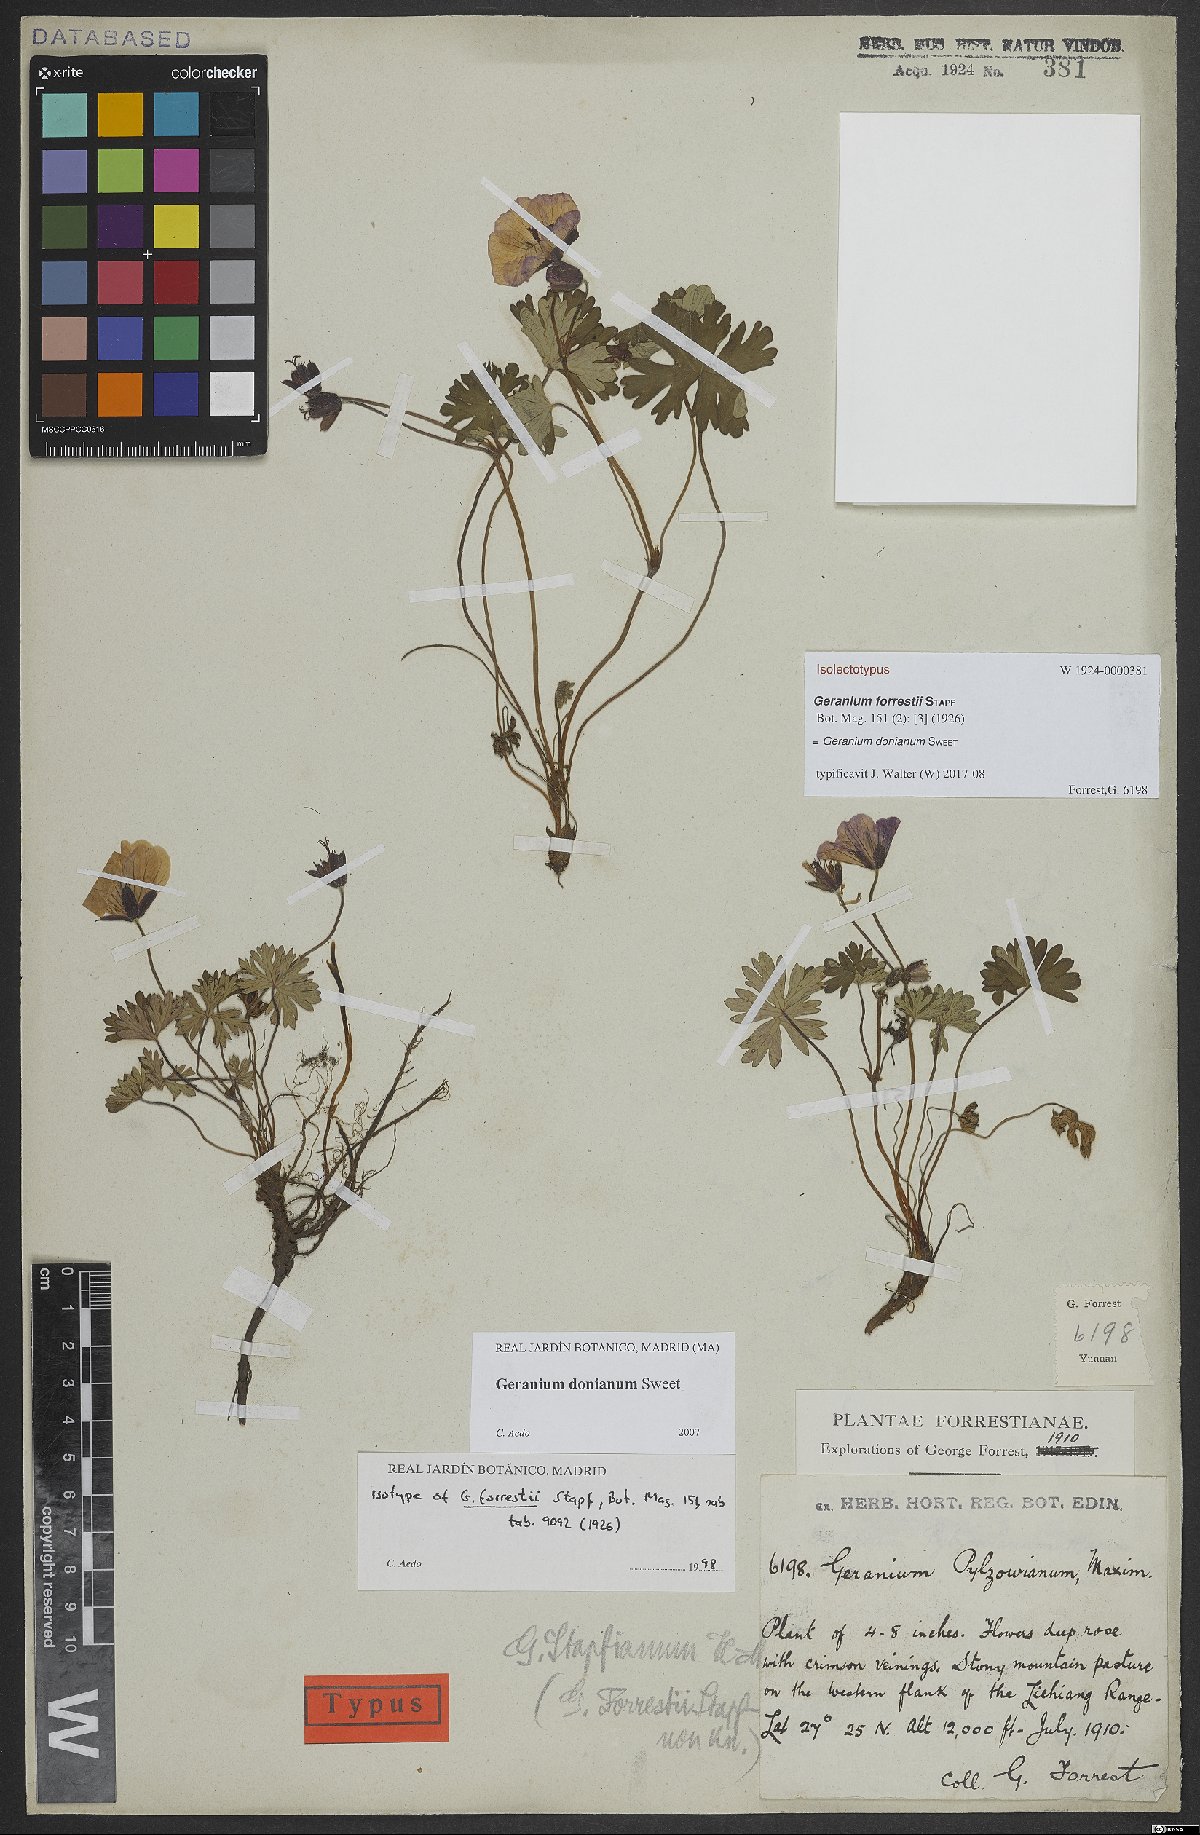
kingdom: Plantae
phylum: Tracheophyta
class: Magnoliopsida
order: Geraniales
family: Geraniaceae
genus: Geranium
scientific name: Geranium donianum
